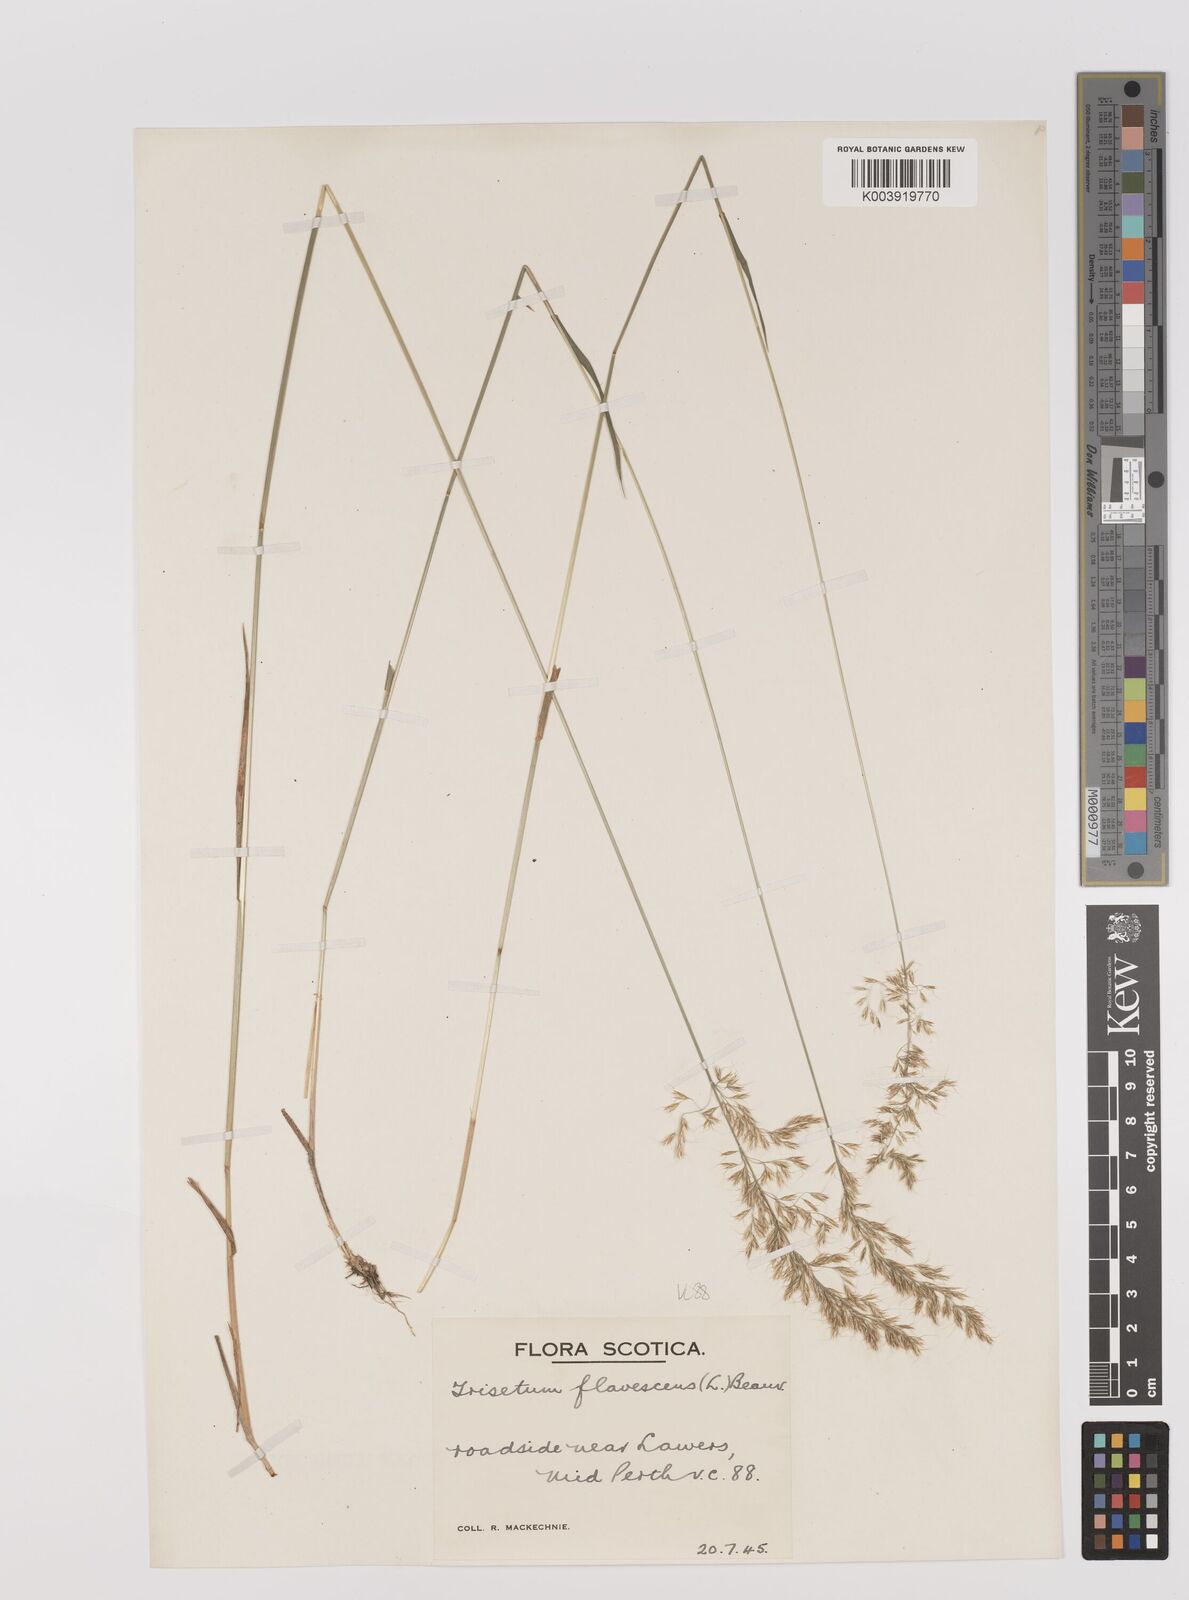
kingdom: Plantae
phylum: Tracheophyta
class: Liliopsida
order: Poales
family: Poaceae
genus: Trisetum
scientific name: Trisetum flavescens
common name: Yellow oat-grass
